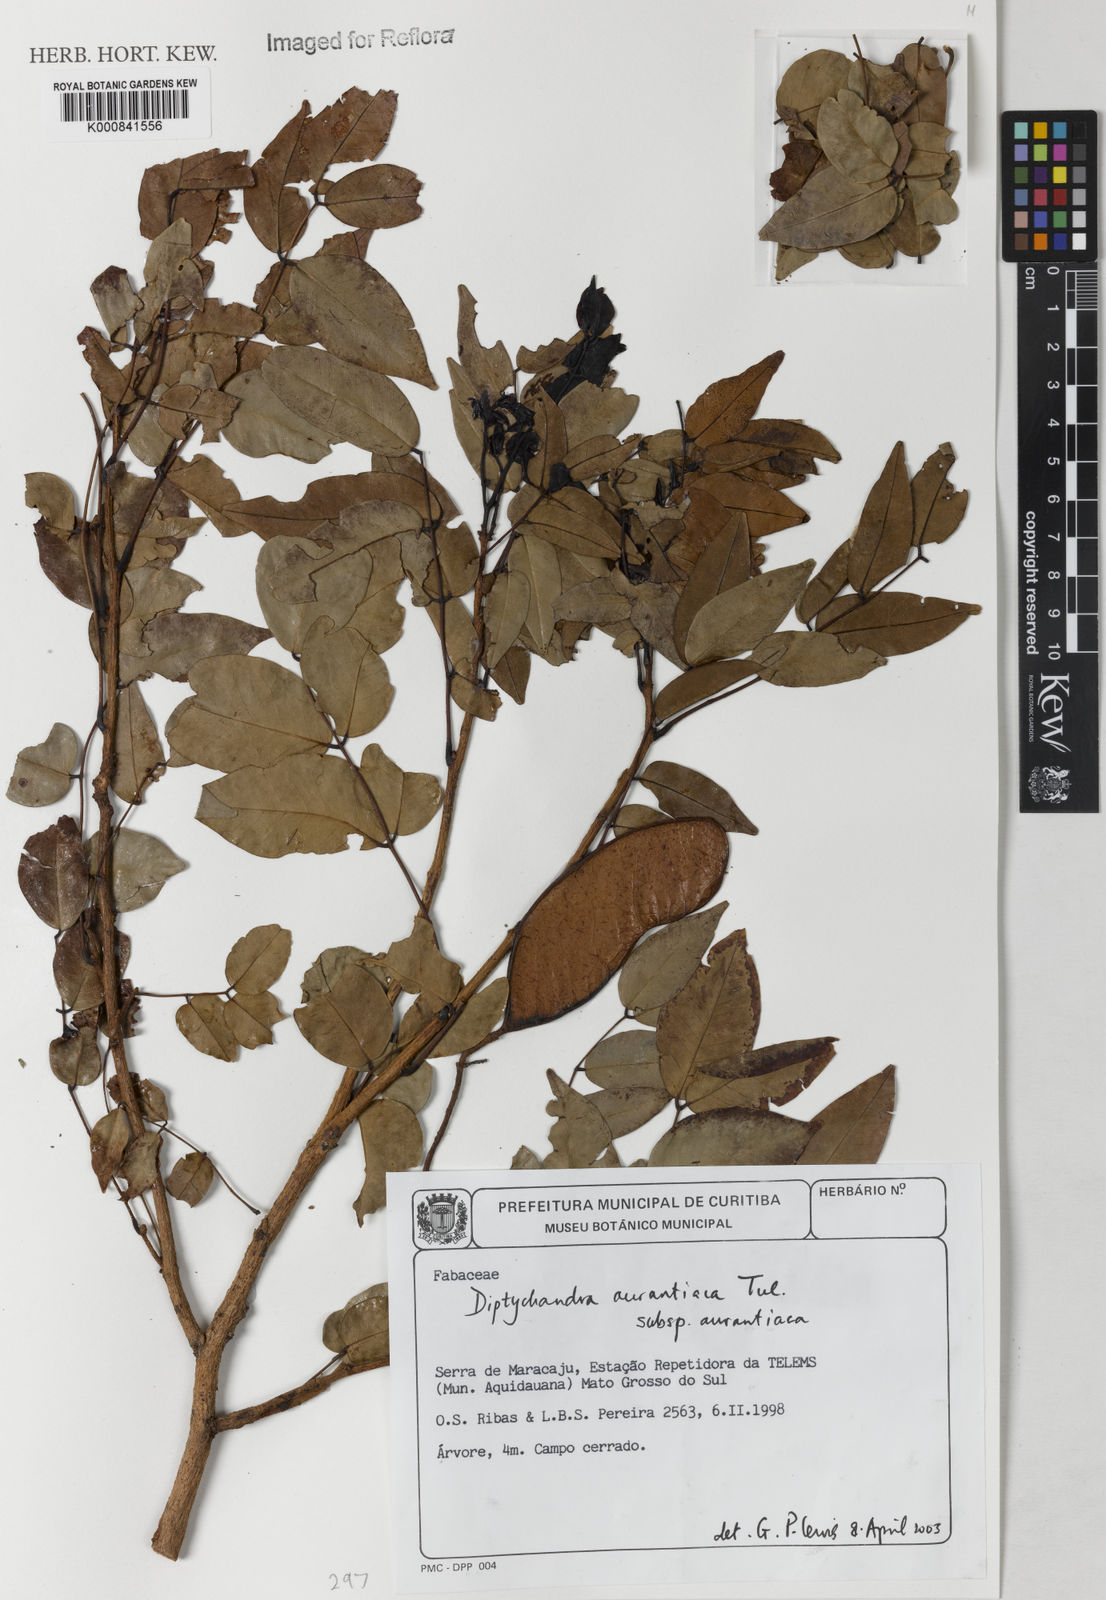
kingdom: Plantae
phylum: Tracheophyta
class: Magnoliopsida
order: Fabales
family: Fabaceae
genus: Diptychandra
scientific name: Diptychandra aurantiaca
